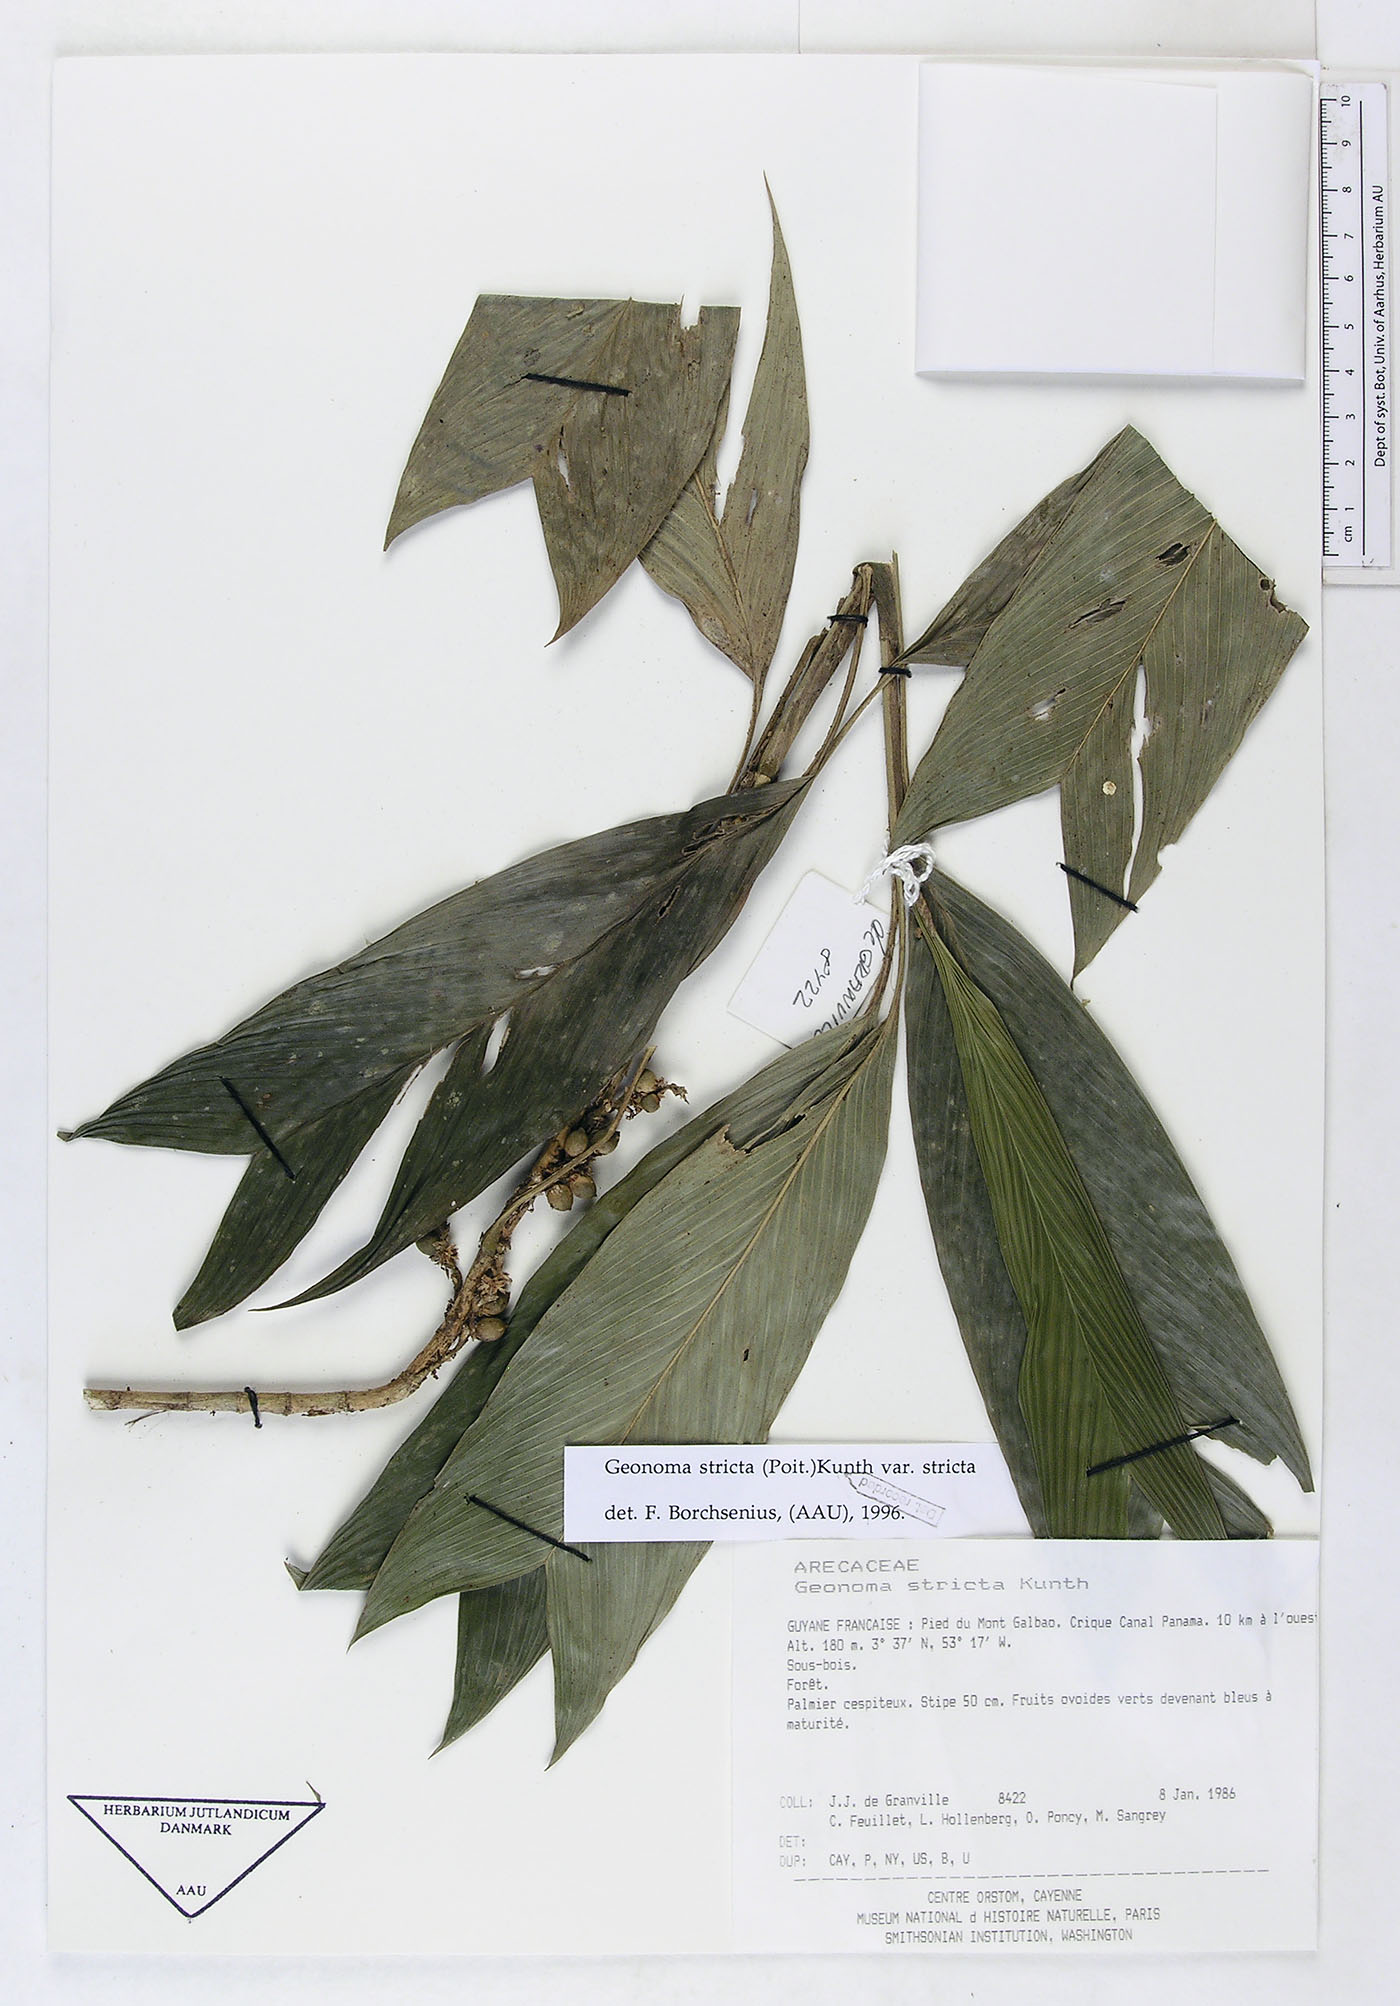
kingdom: Plantae
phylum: Tracheophyta
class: Liliopsida
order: Arecales
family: Arecaceae
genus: Geonoma
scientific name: Geonoma stricta
